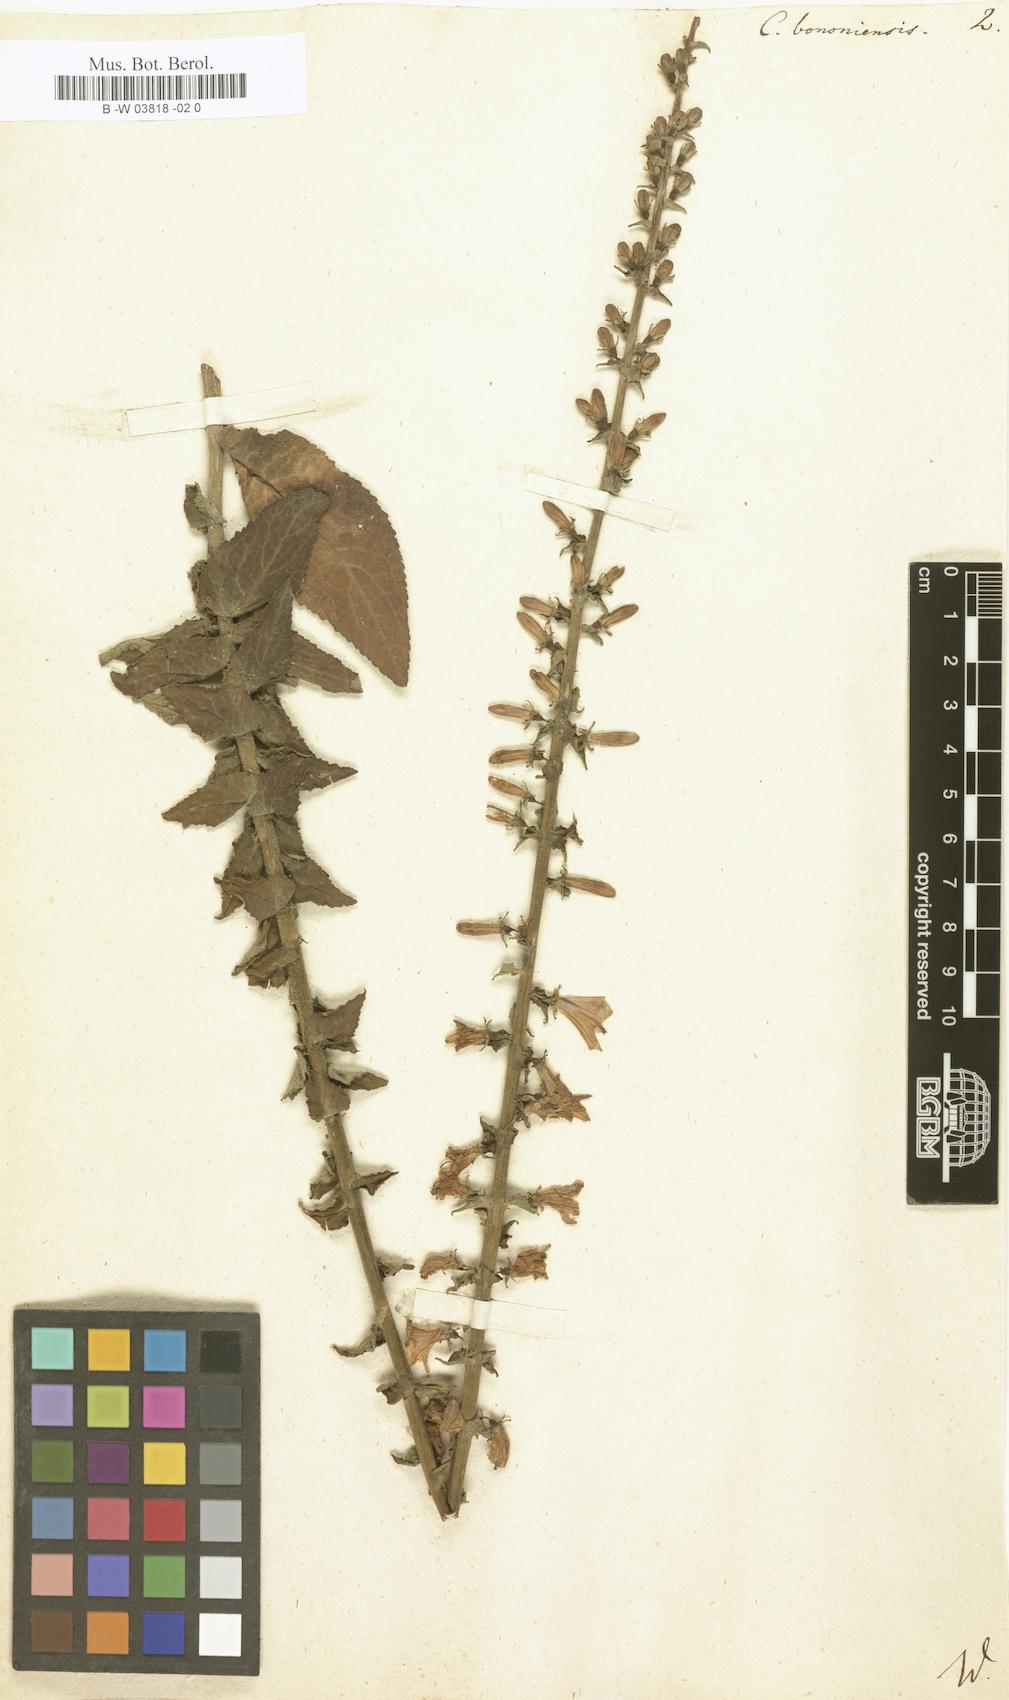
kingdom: Plantae
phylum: Tracheophyta
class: Magnoliopsida
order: Asterales
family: Campanulaceae
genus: Campanula
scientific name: Campanula bononiensis
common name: Pale bellflower
